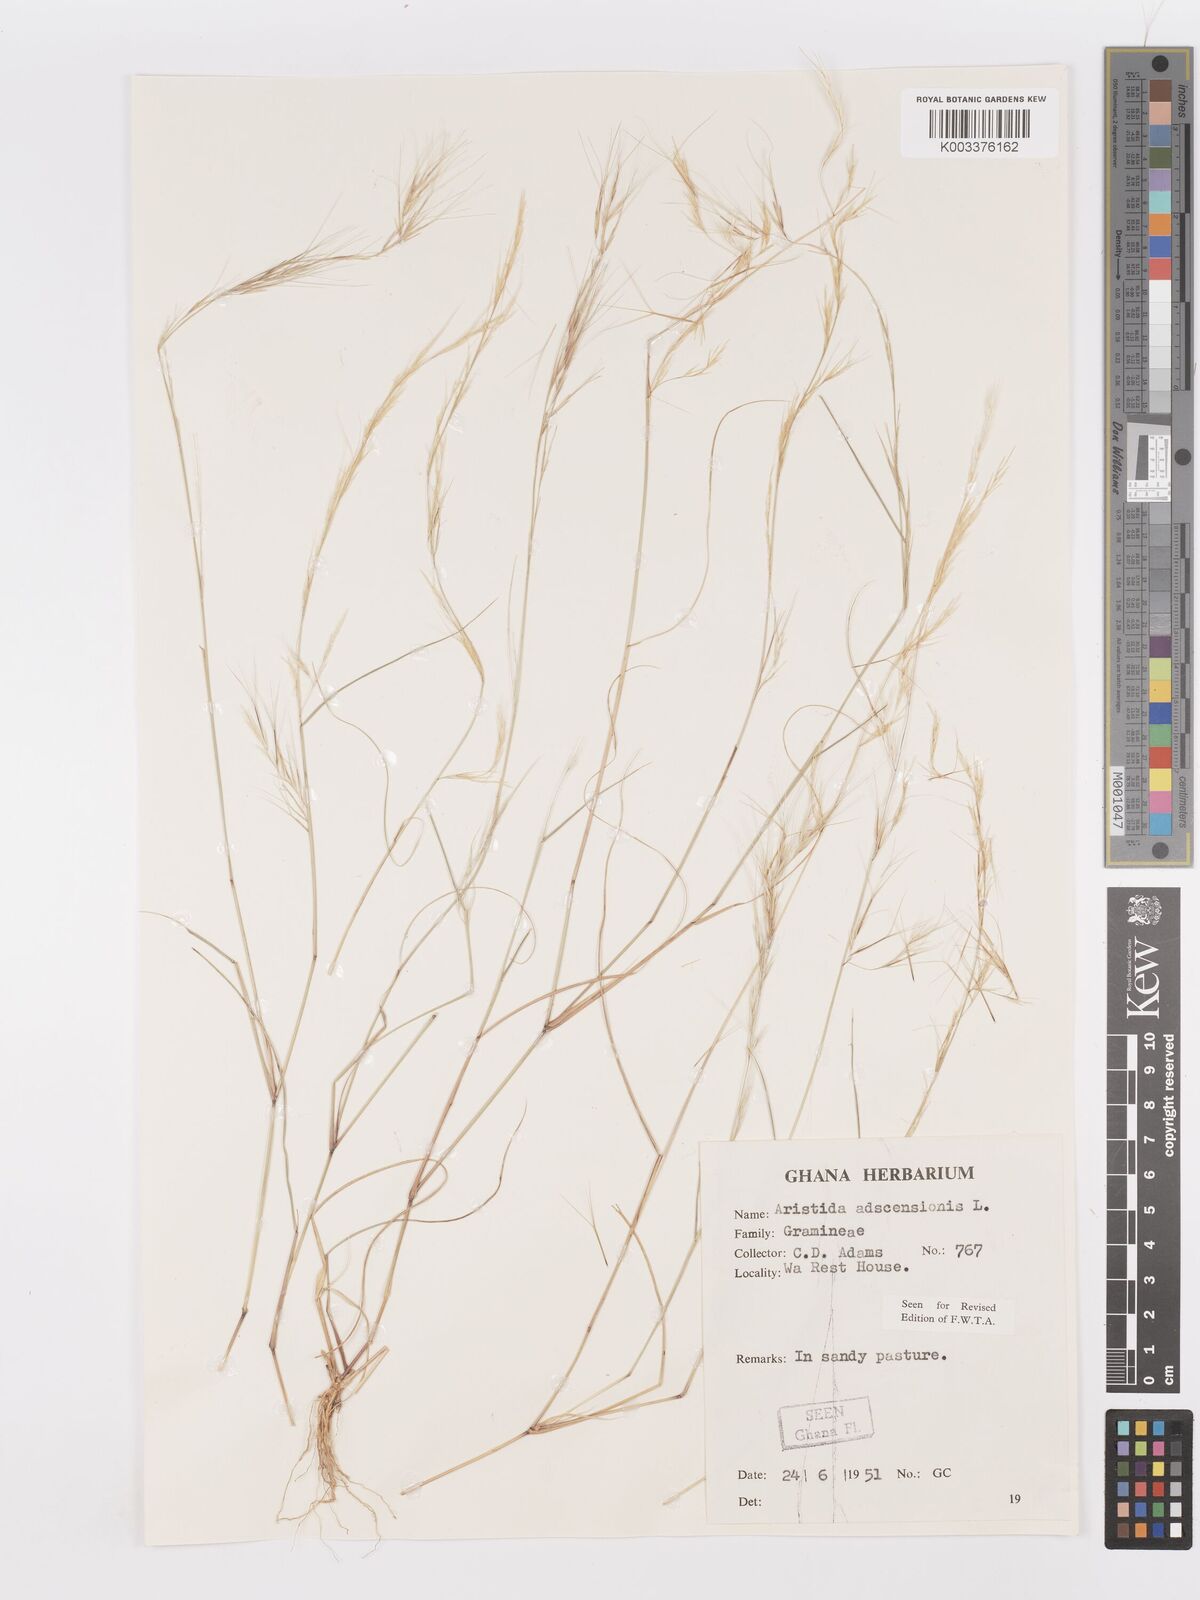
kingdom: Plantae
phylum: Tracheophyta
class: Liliopsida
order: Poales
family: Poaceae
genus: Aristida
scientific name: Aristida adscensionis
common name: Sixweeks threeawn
